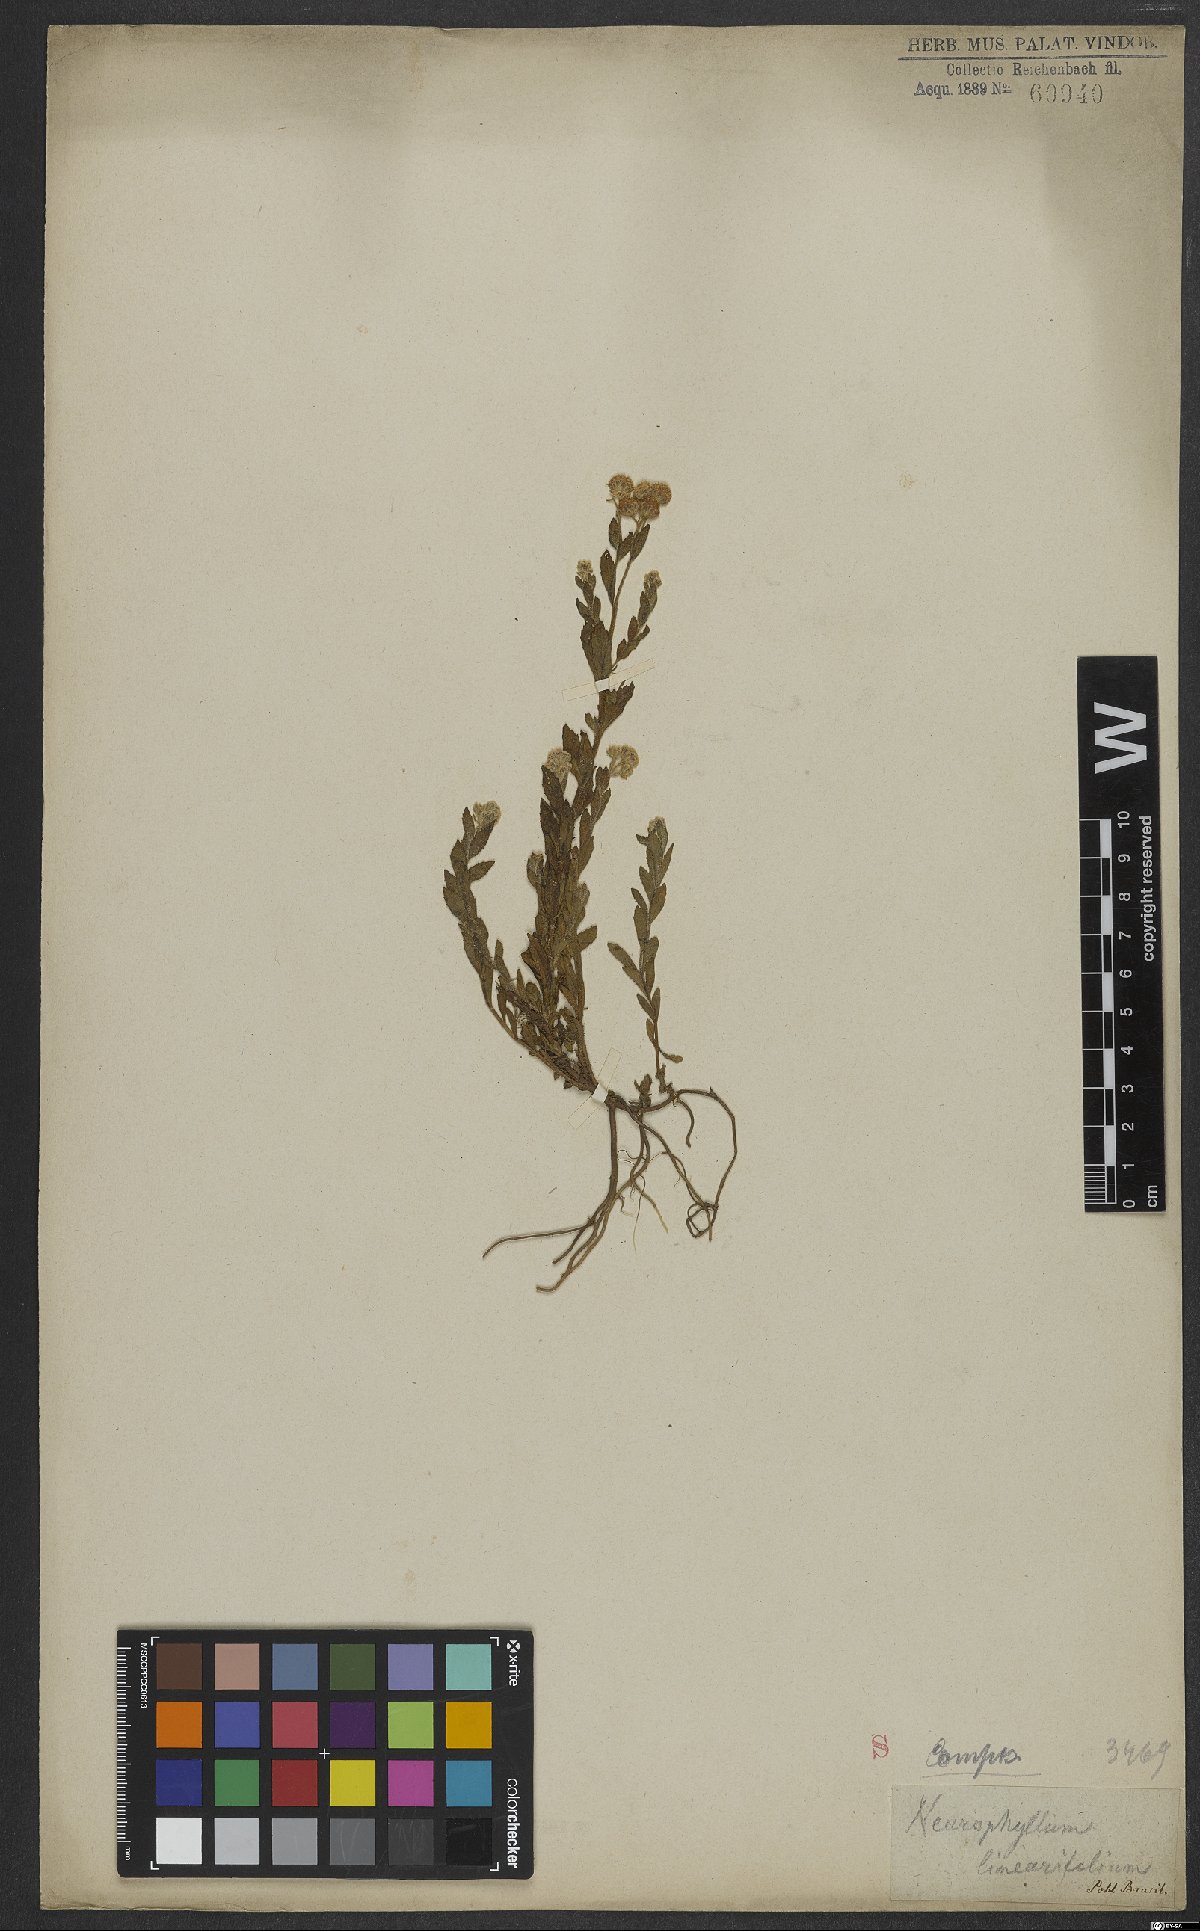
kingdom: Plantae
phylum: Tracheophyta
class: Magnoliopsida
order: Asterales
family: Asteraceae
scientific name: Asteraceae
